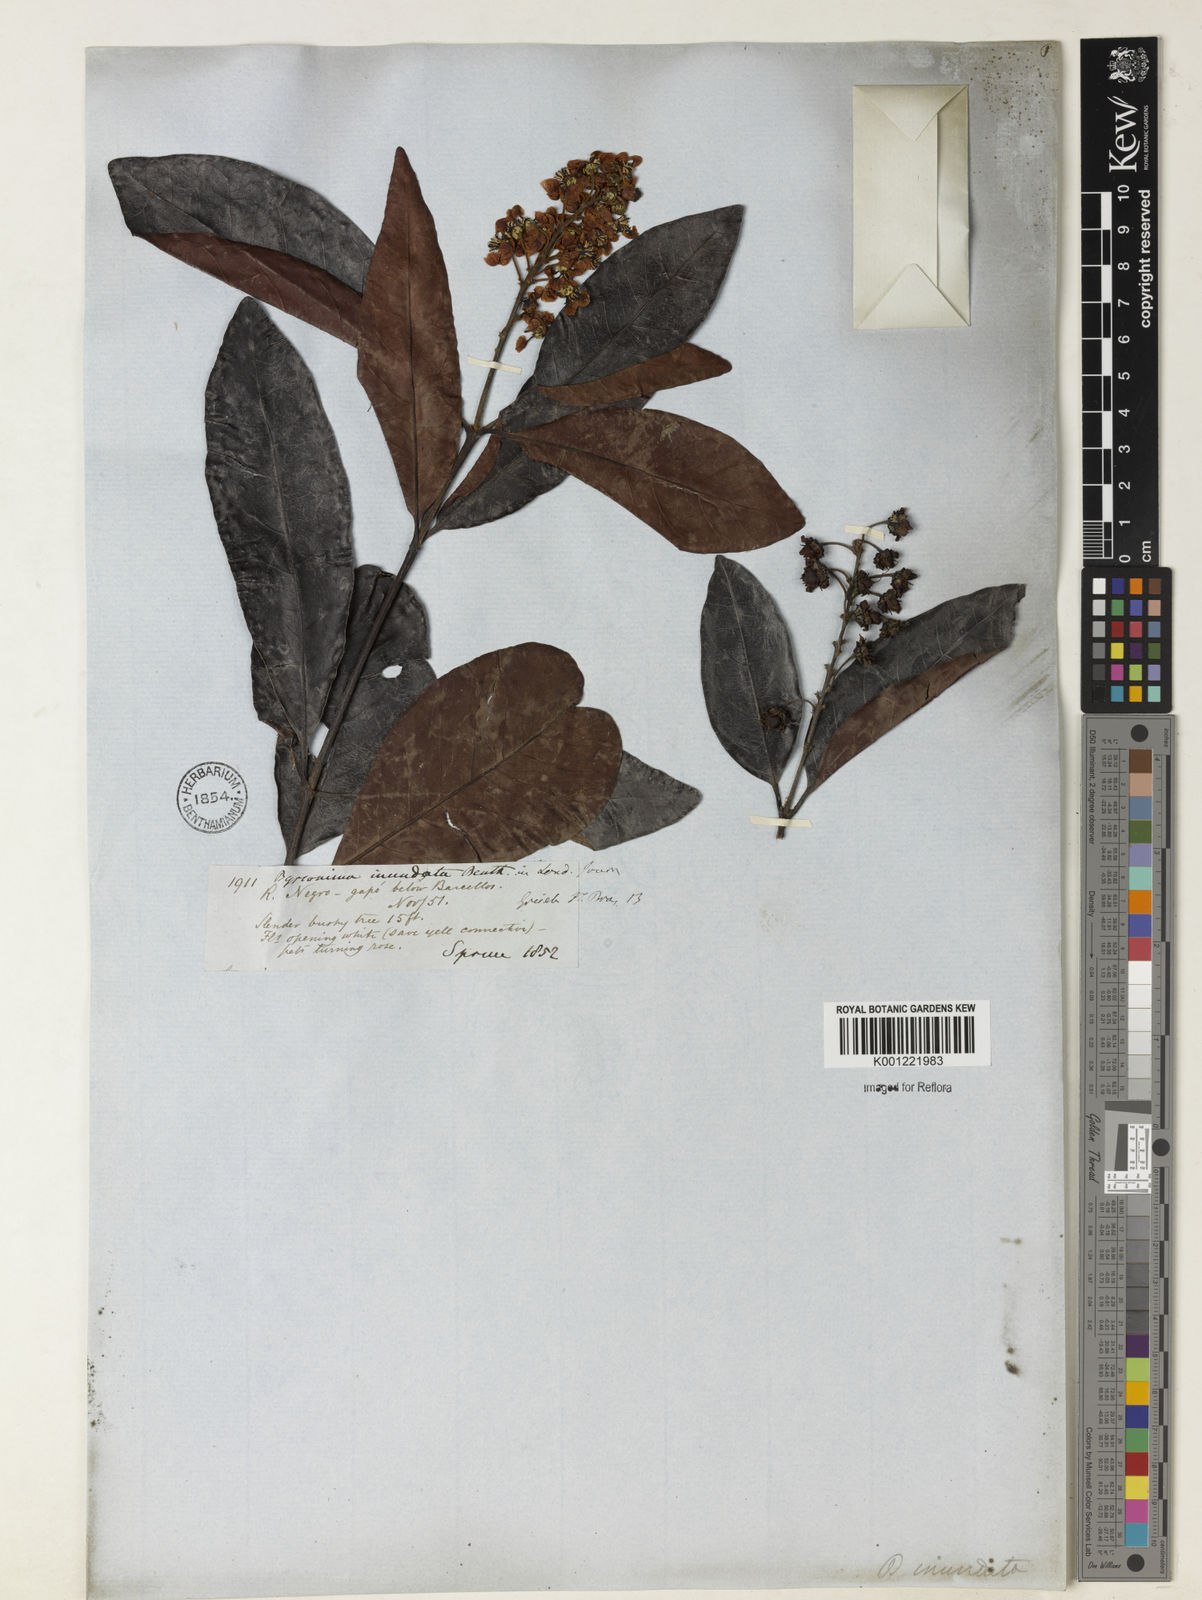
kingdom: Plantae
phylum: Tracheophyta
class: Magnoliopsida
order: Malpighiales
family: Malpighiaceae
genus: Byrsonima
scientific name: Byrsonima japurensis
